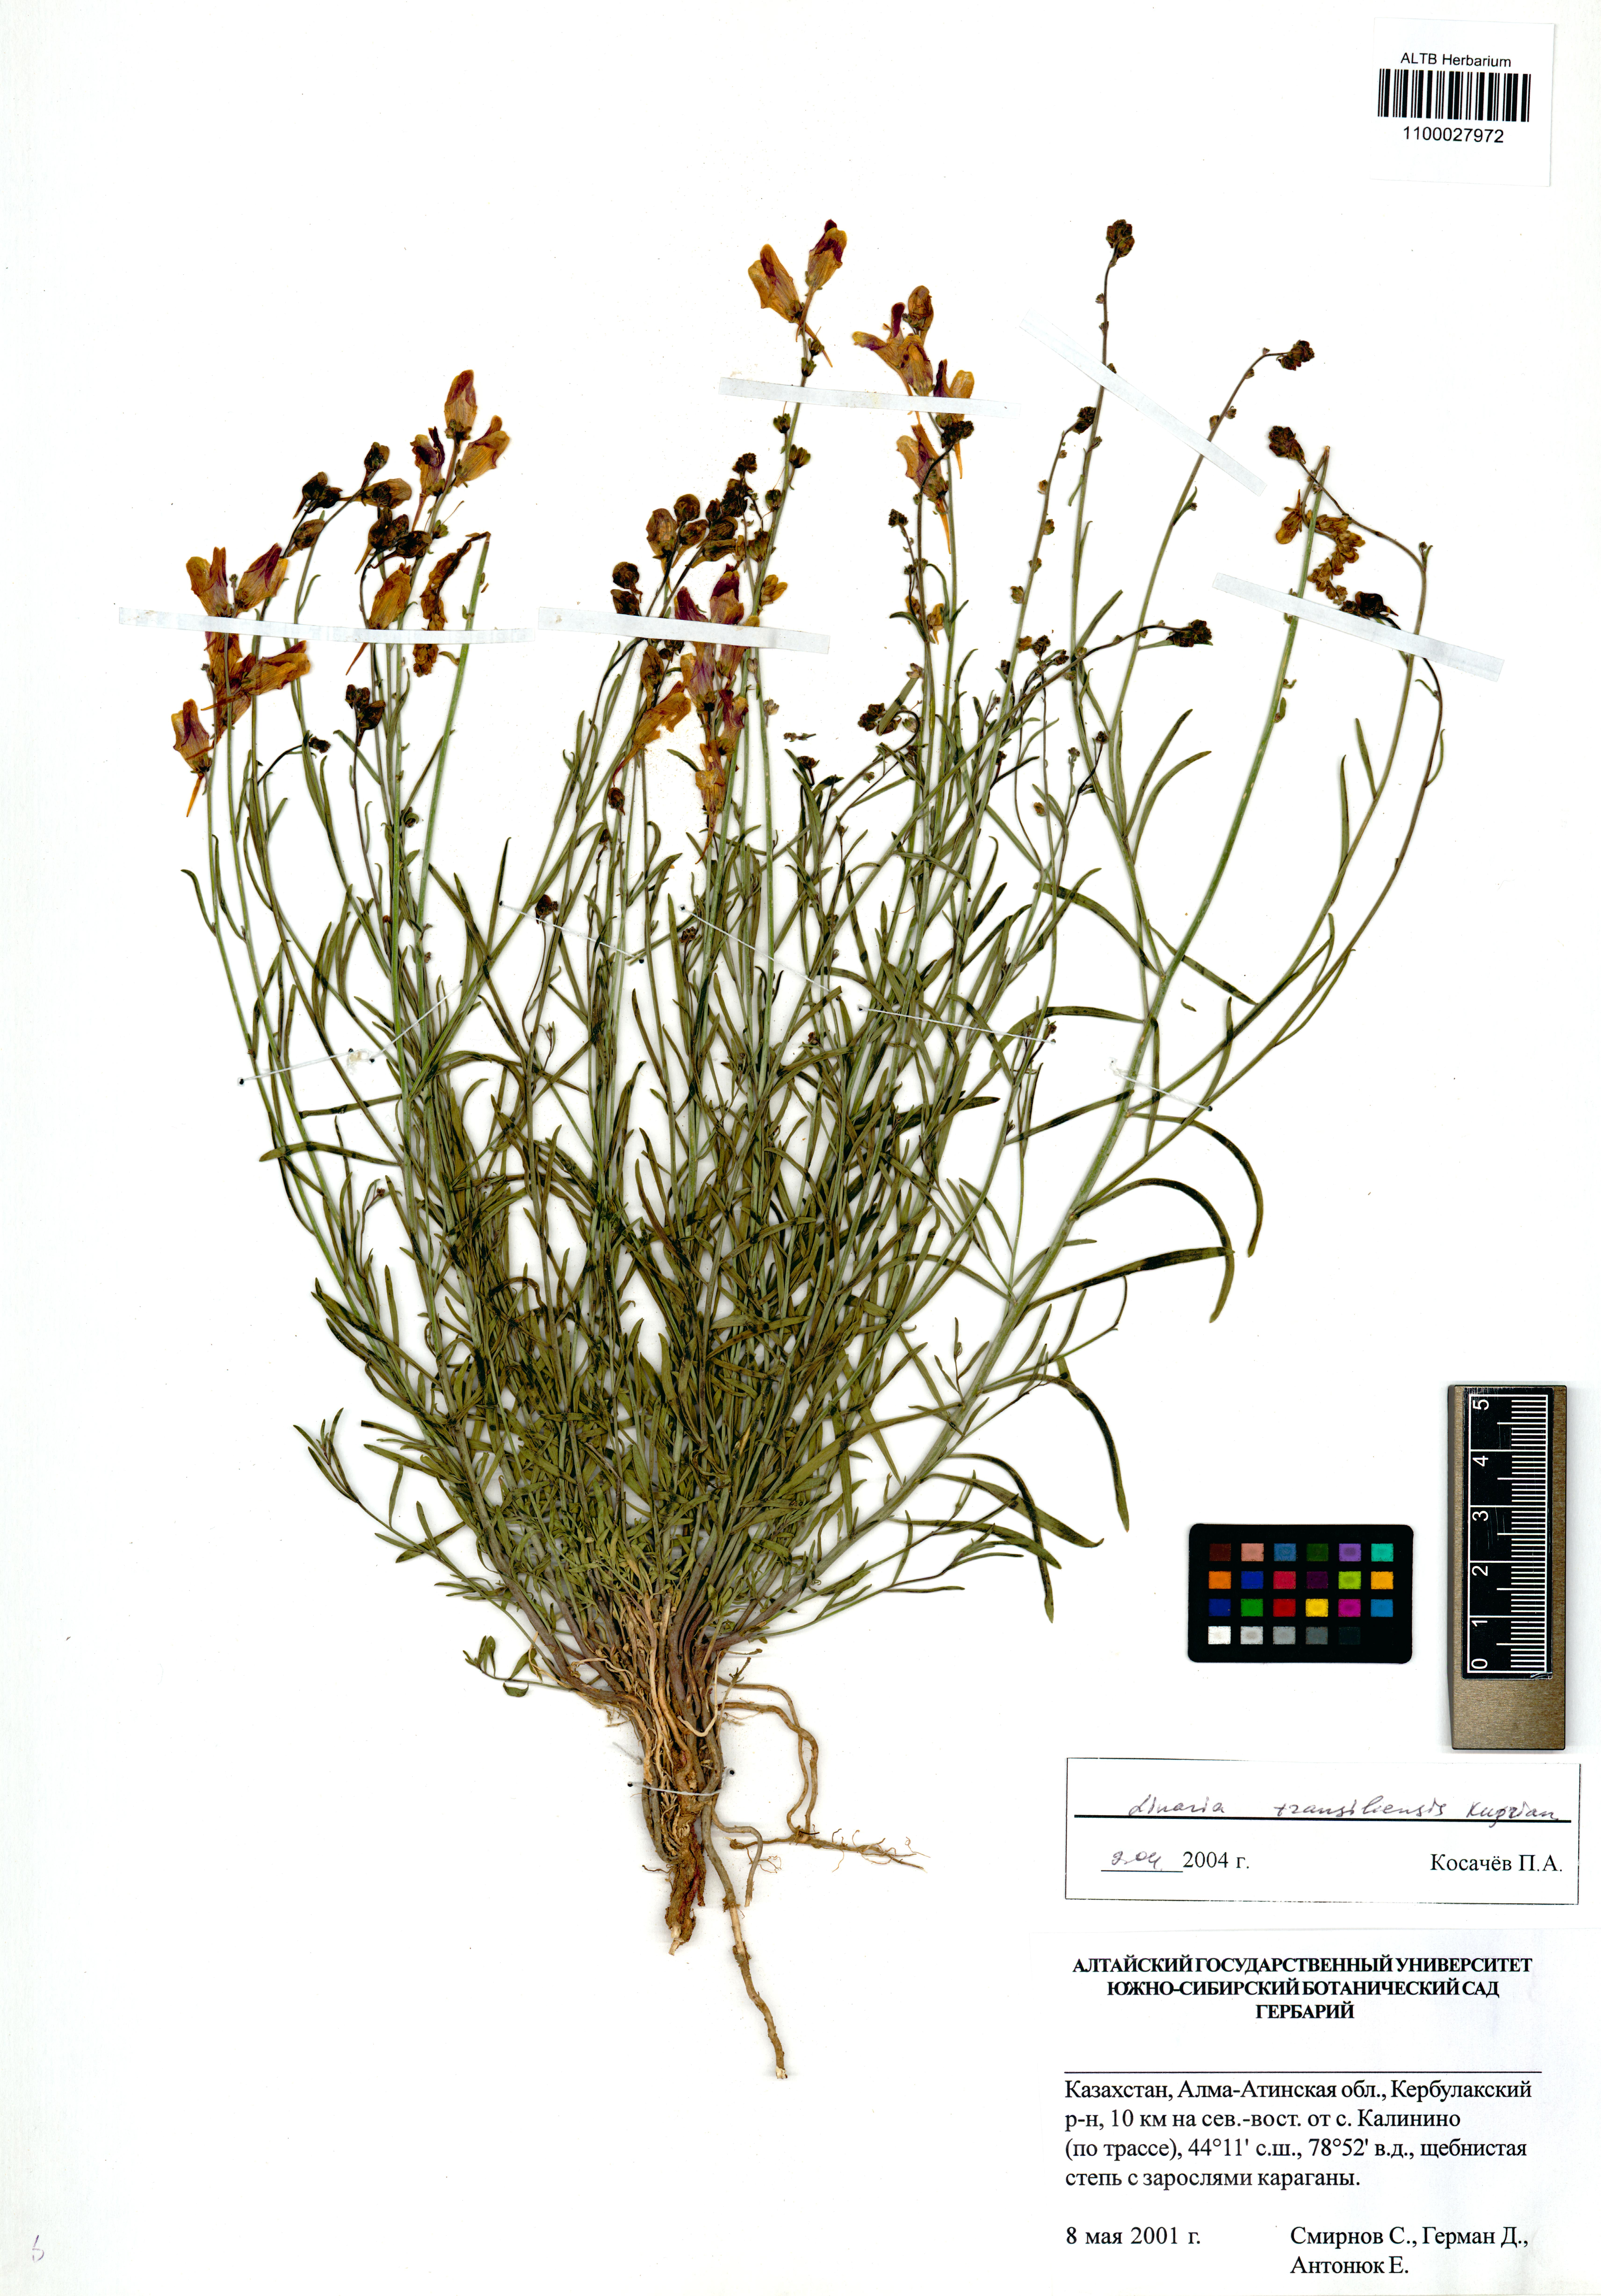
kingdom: Plantae
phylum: Tracheophyta
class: Magnoliopsida
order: Lamiales
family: Plantaginaceae
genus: Linaria
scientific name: Linaria bungei
